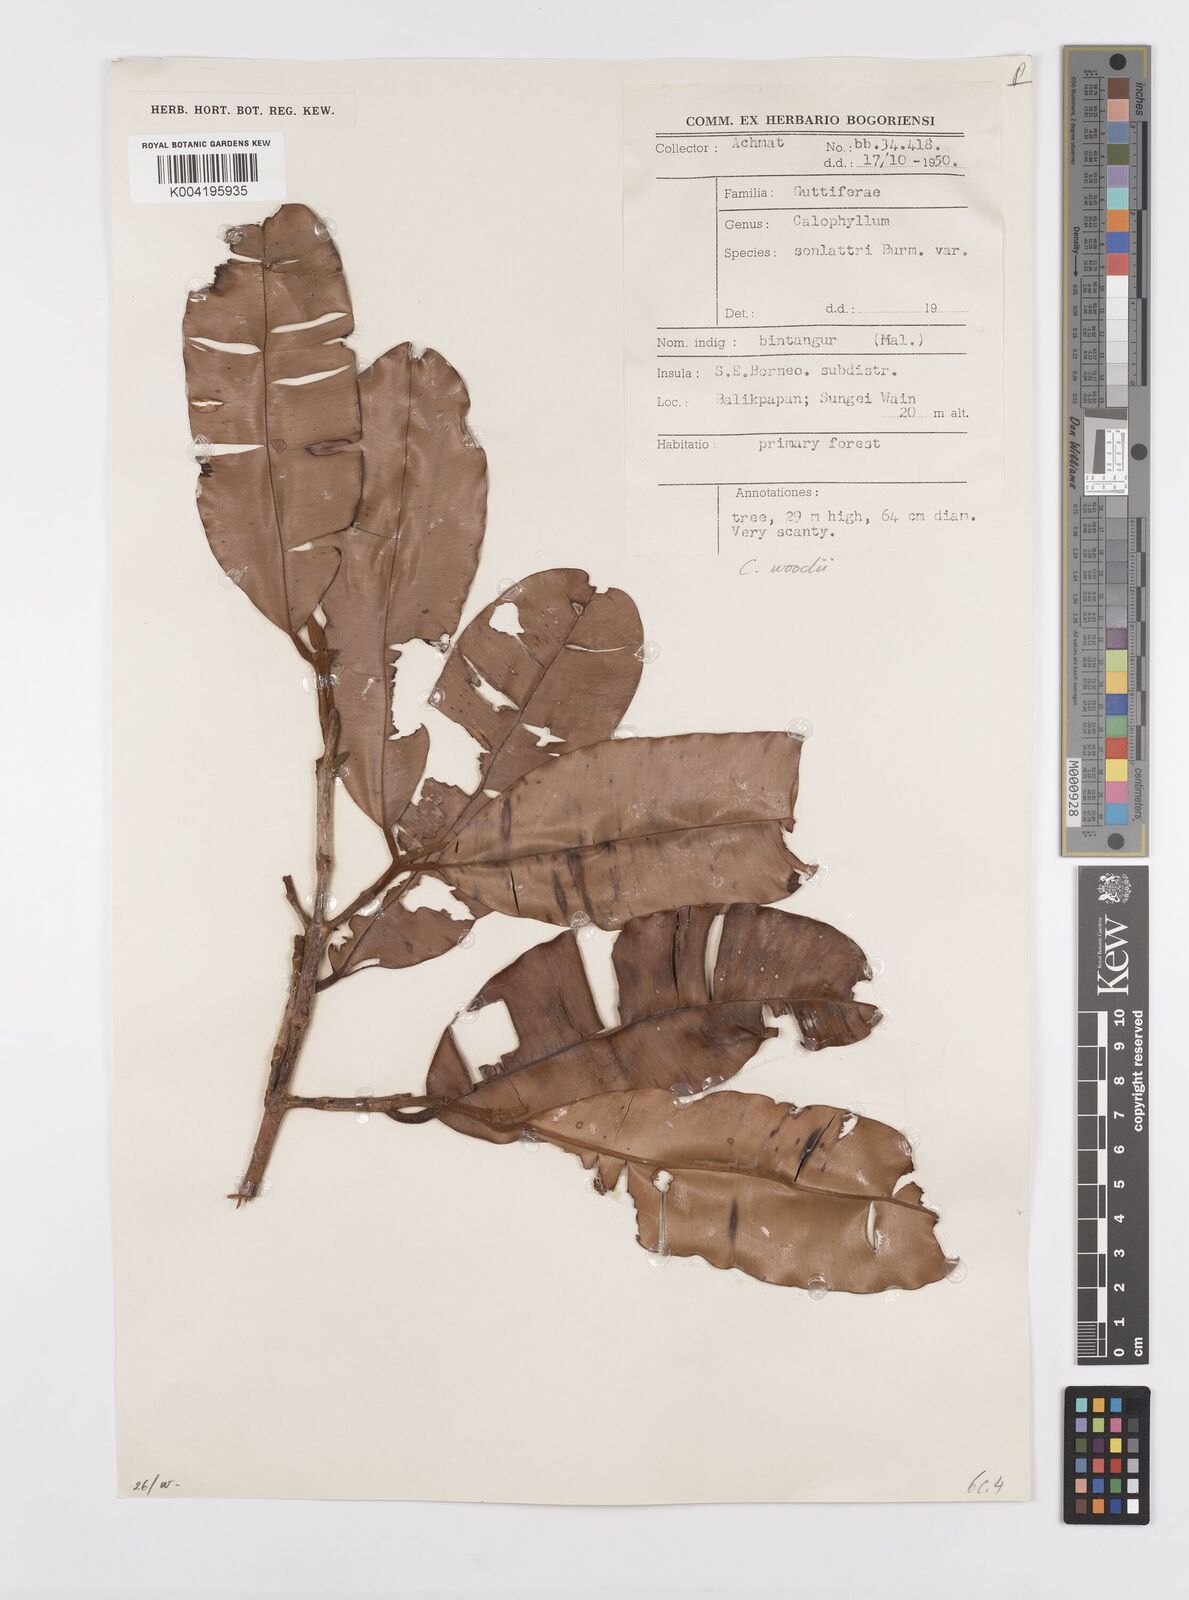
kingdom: Plantae
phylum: Tracheophyta
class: Magnoliopsida
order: Malpighiales
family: Calophyllaceae
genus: Calophyllum
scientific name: Calophyllum woodii
